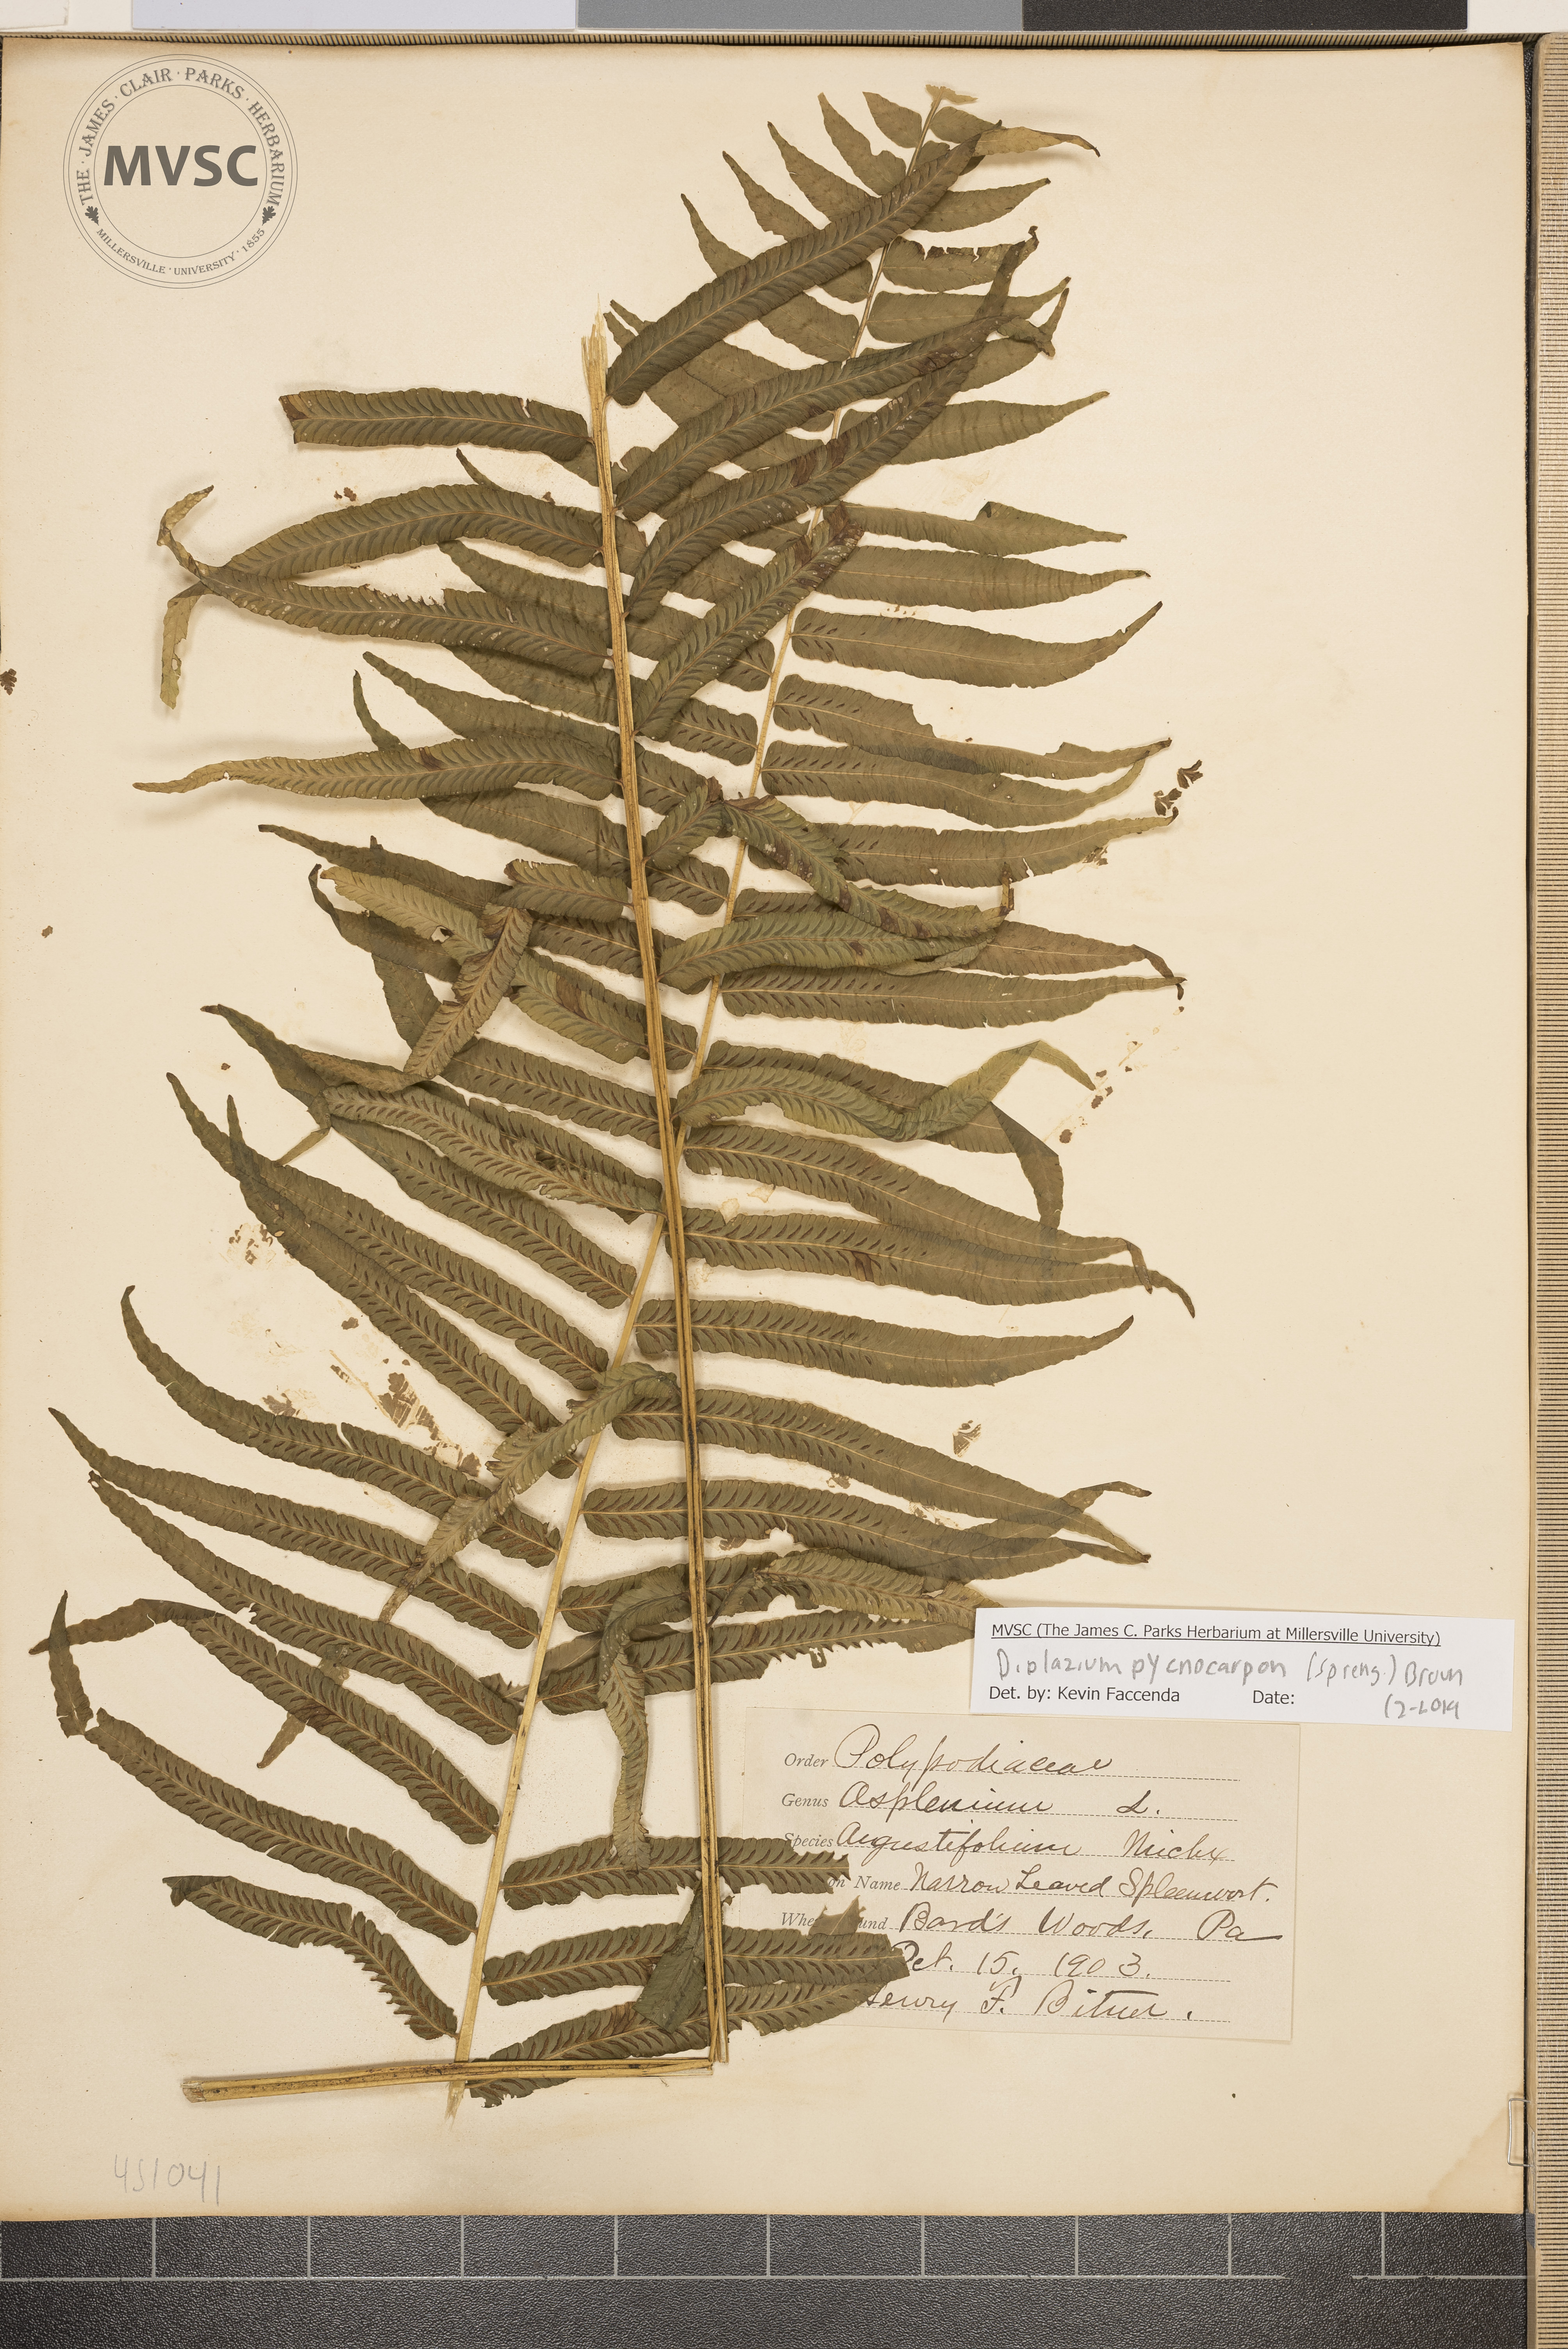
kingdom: Plantae
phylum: Tracheophyta
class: Polypodiopsida
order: Polypodiales
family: Diplaziopsidaceae
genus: Homalosorus
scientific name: Homalosorus pycnocarpos
